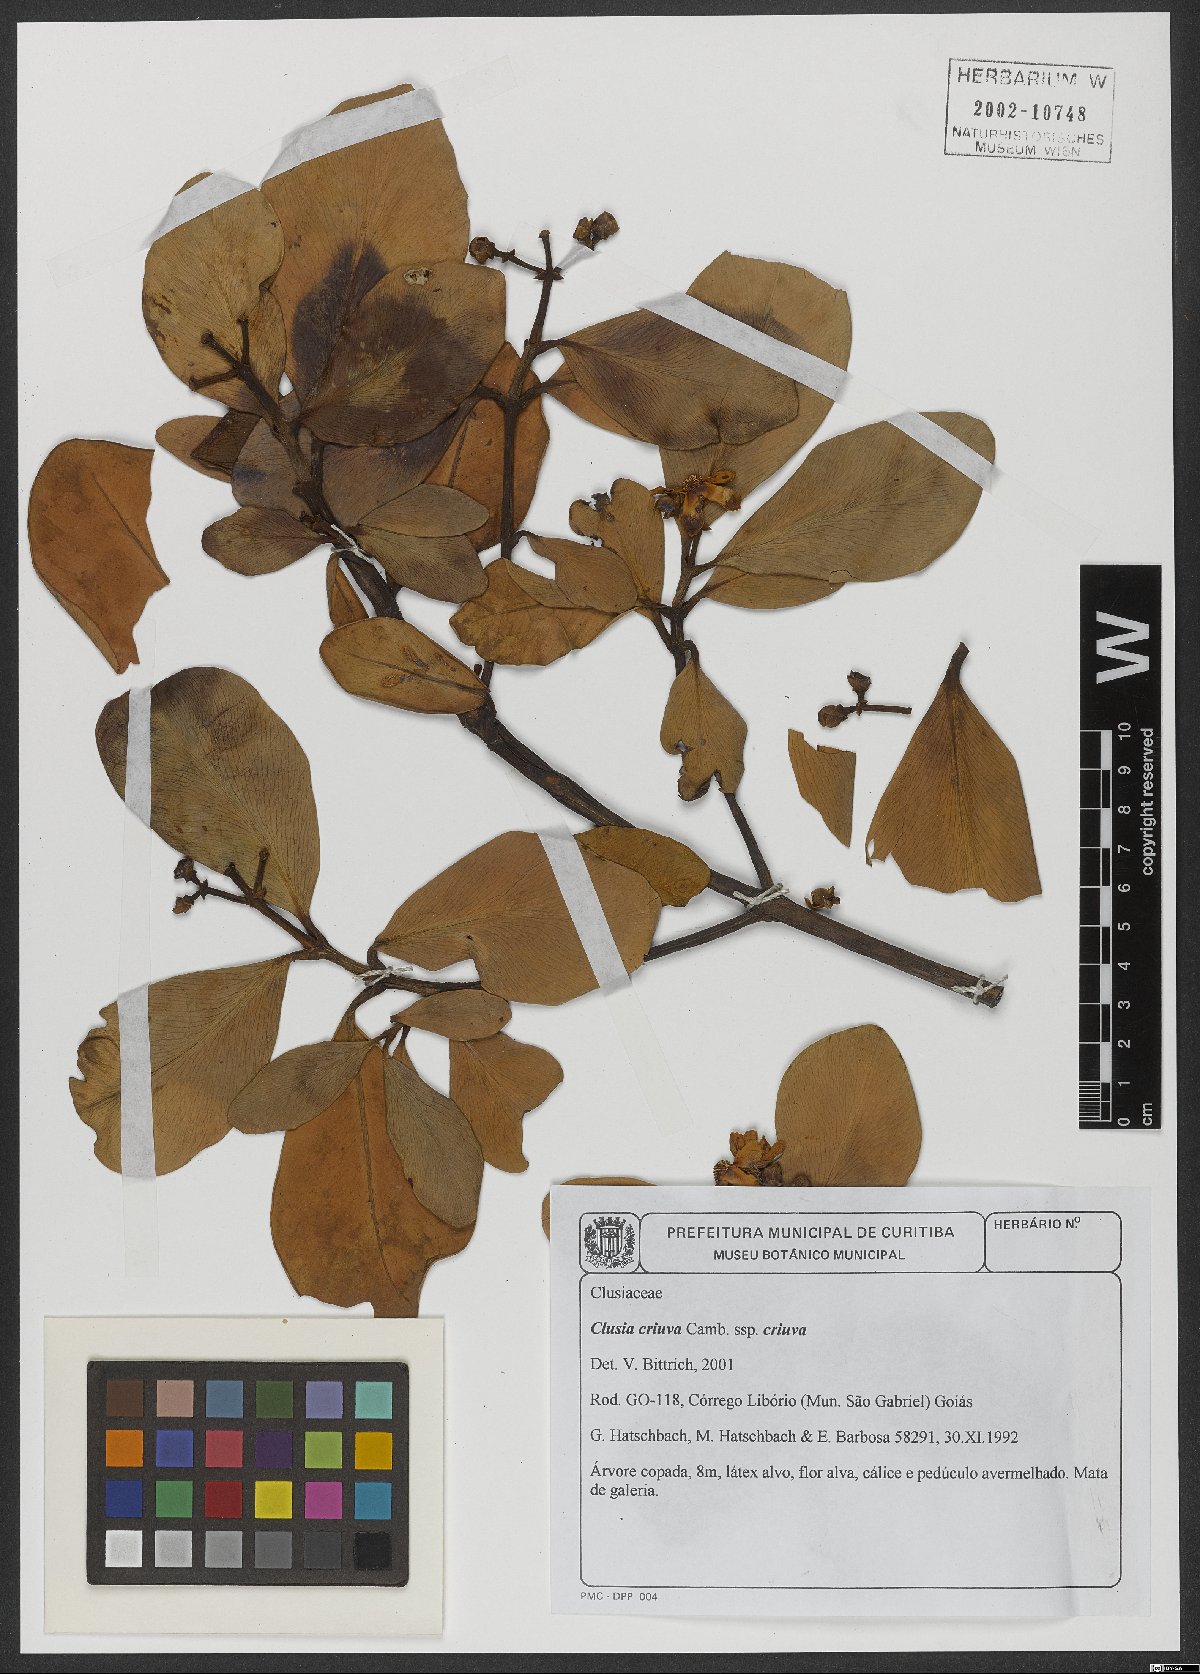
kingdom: Plantae
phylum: Tracheophyta
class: Magnoliopsida
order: Malpighiales
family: Clusiaceae
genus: Clusia
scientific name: Clusia criuva
